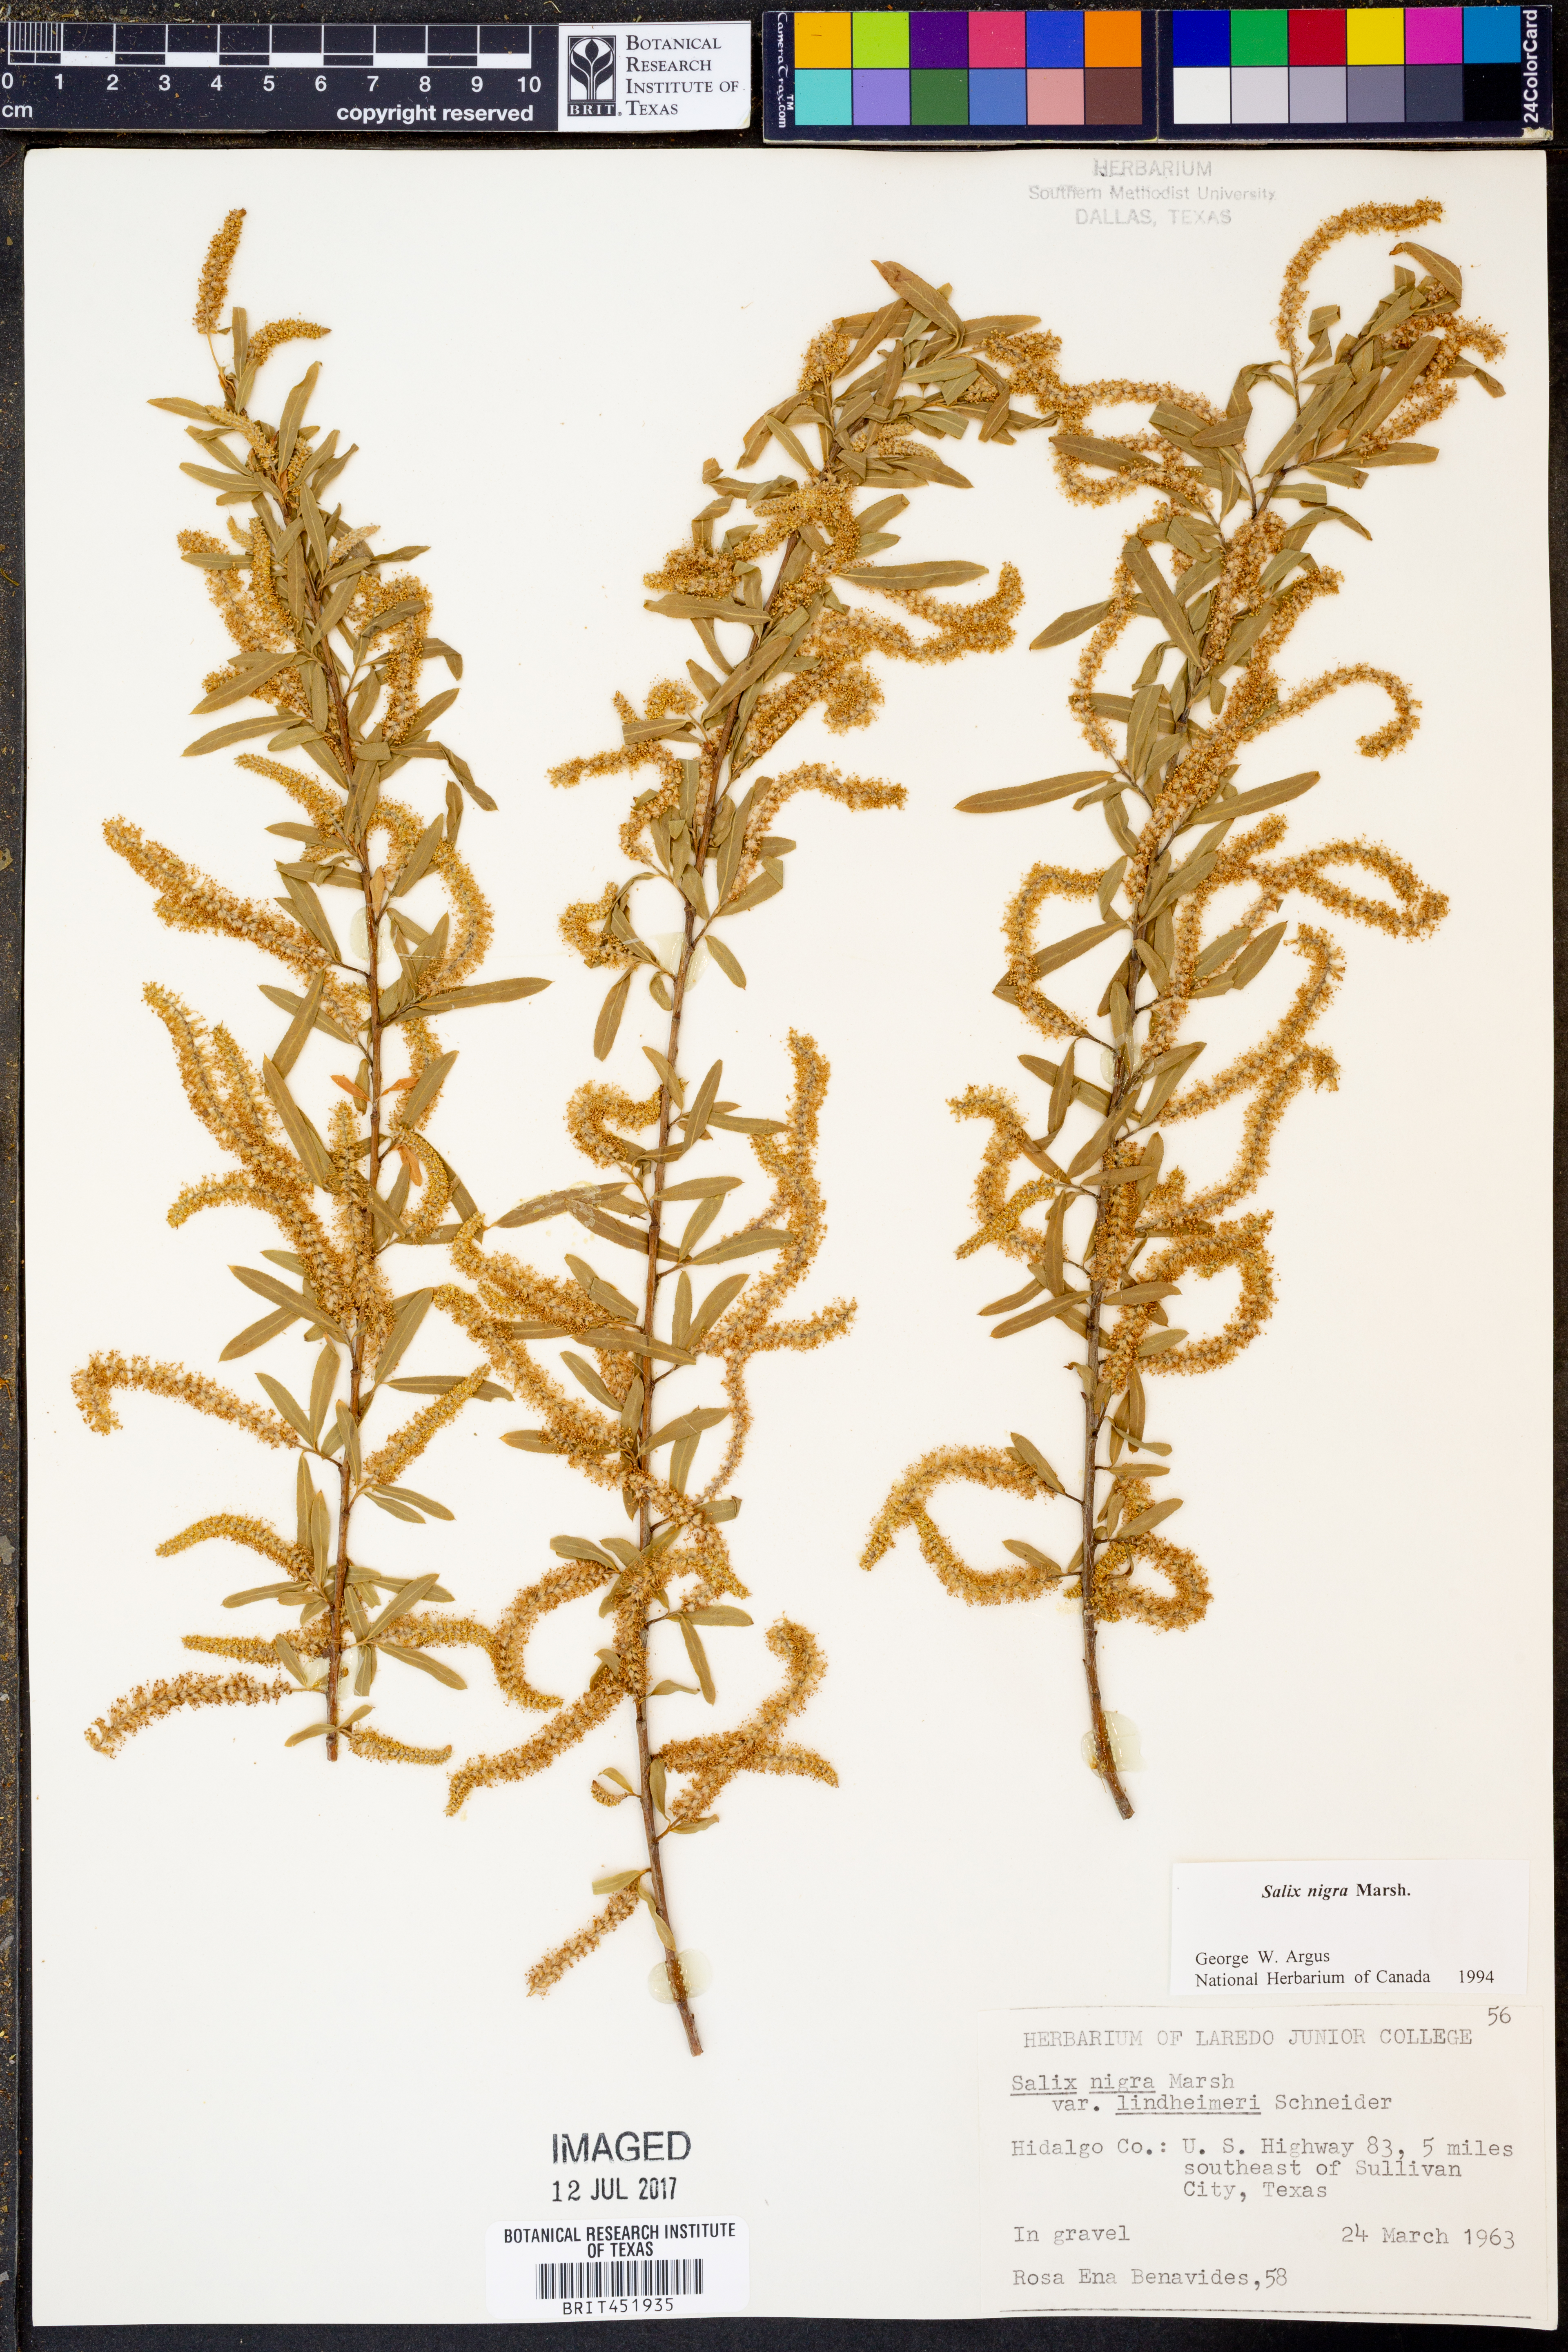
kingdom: Plantae
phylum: Tracheophyta
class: Magnoliopsida
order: Malpighiales
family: Salicaceae
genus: Salix
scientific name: Salix nigra
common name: Black willow
